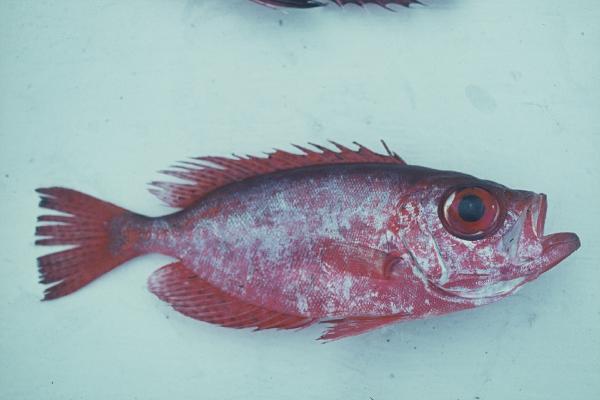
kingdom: Animalia
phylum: Chordata
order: Perciformes
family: Priacanthidae
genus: Priacanthus
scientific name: Priacanthus
